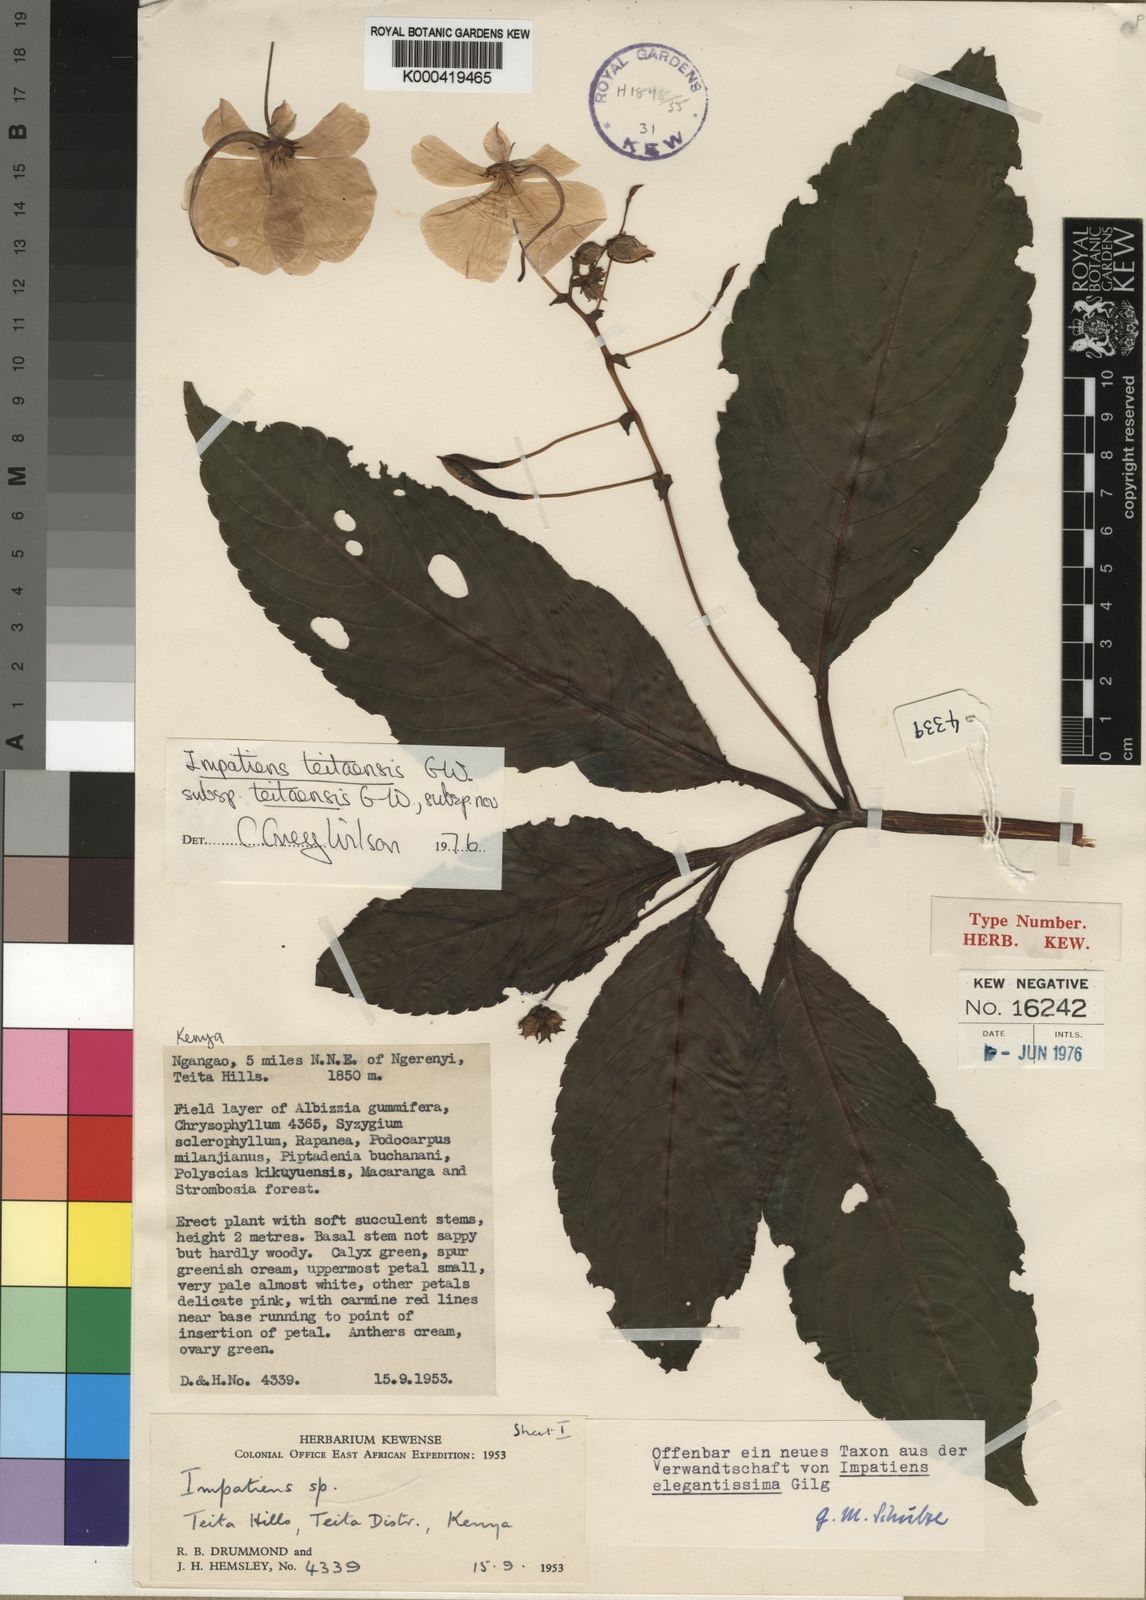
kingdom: Plantae
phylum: Tracheophyta
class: Magnoliopsida
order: Ericales
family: Balsaminaceae
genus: Impatiens
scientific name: Impatiens teitensis
